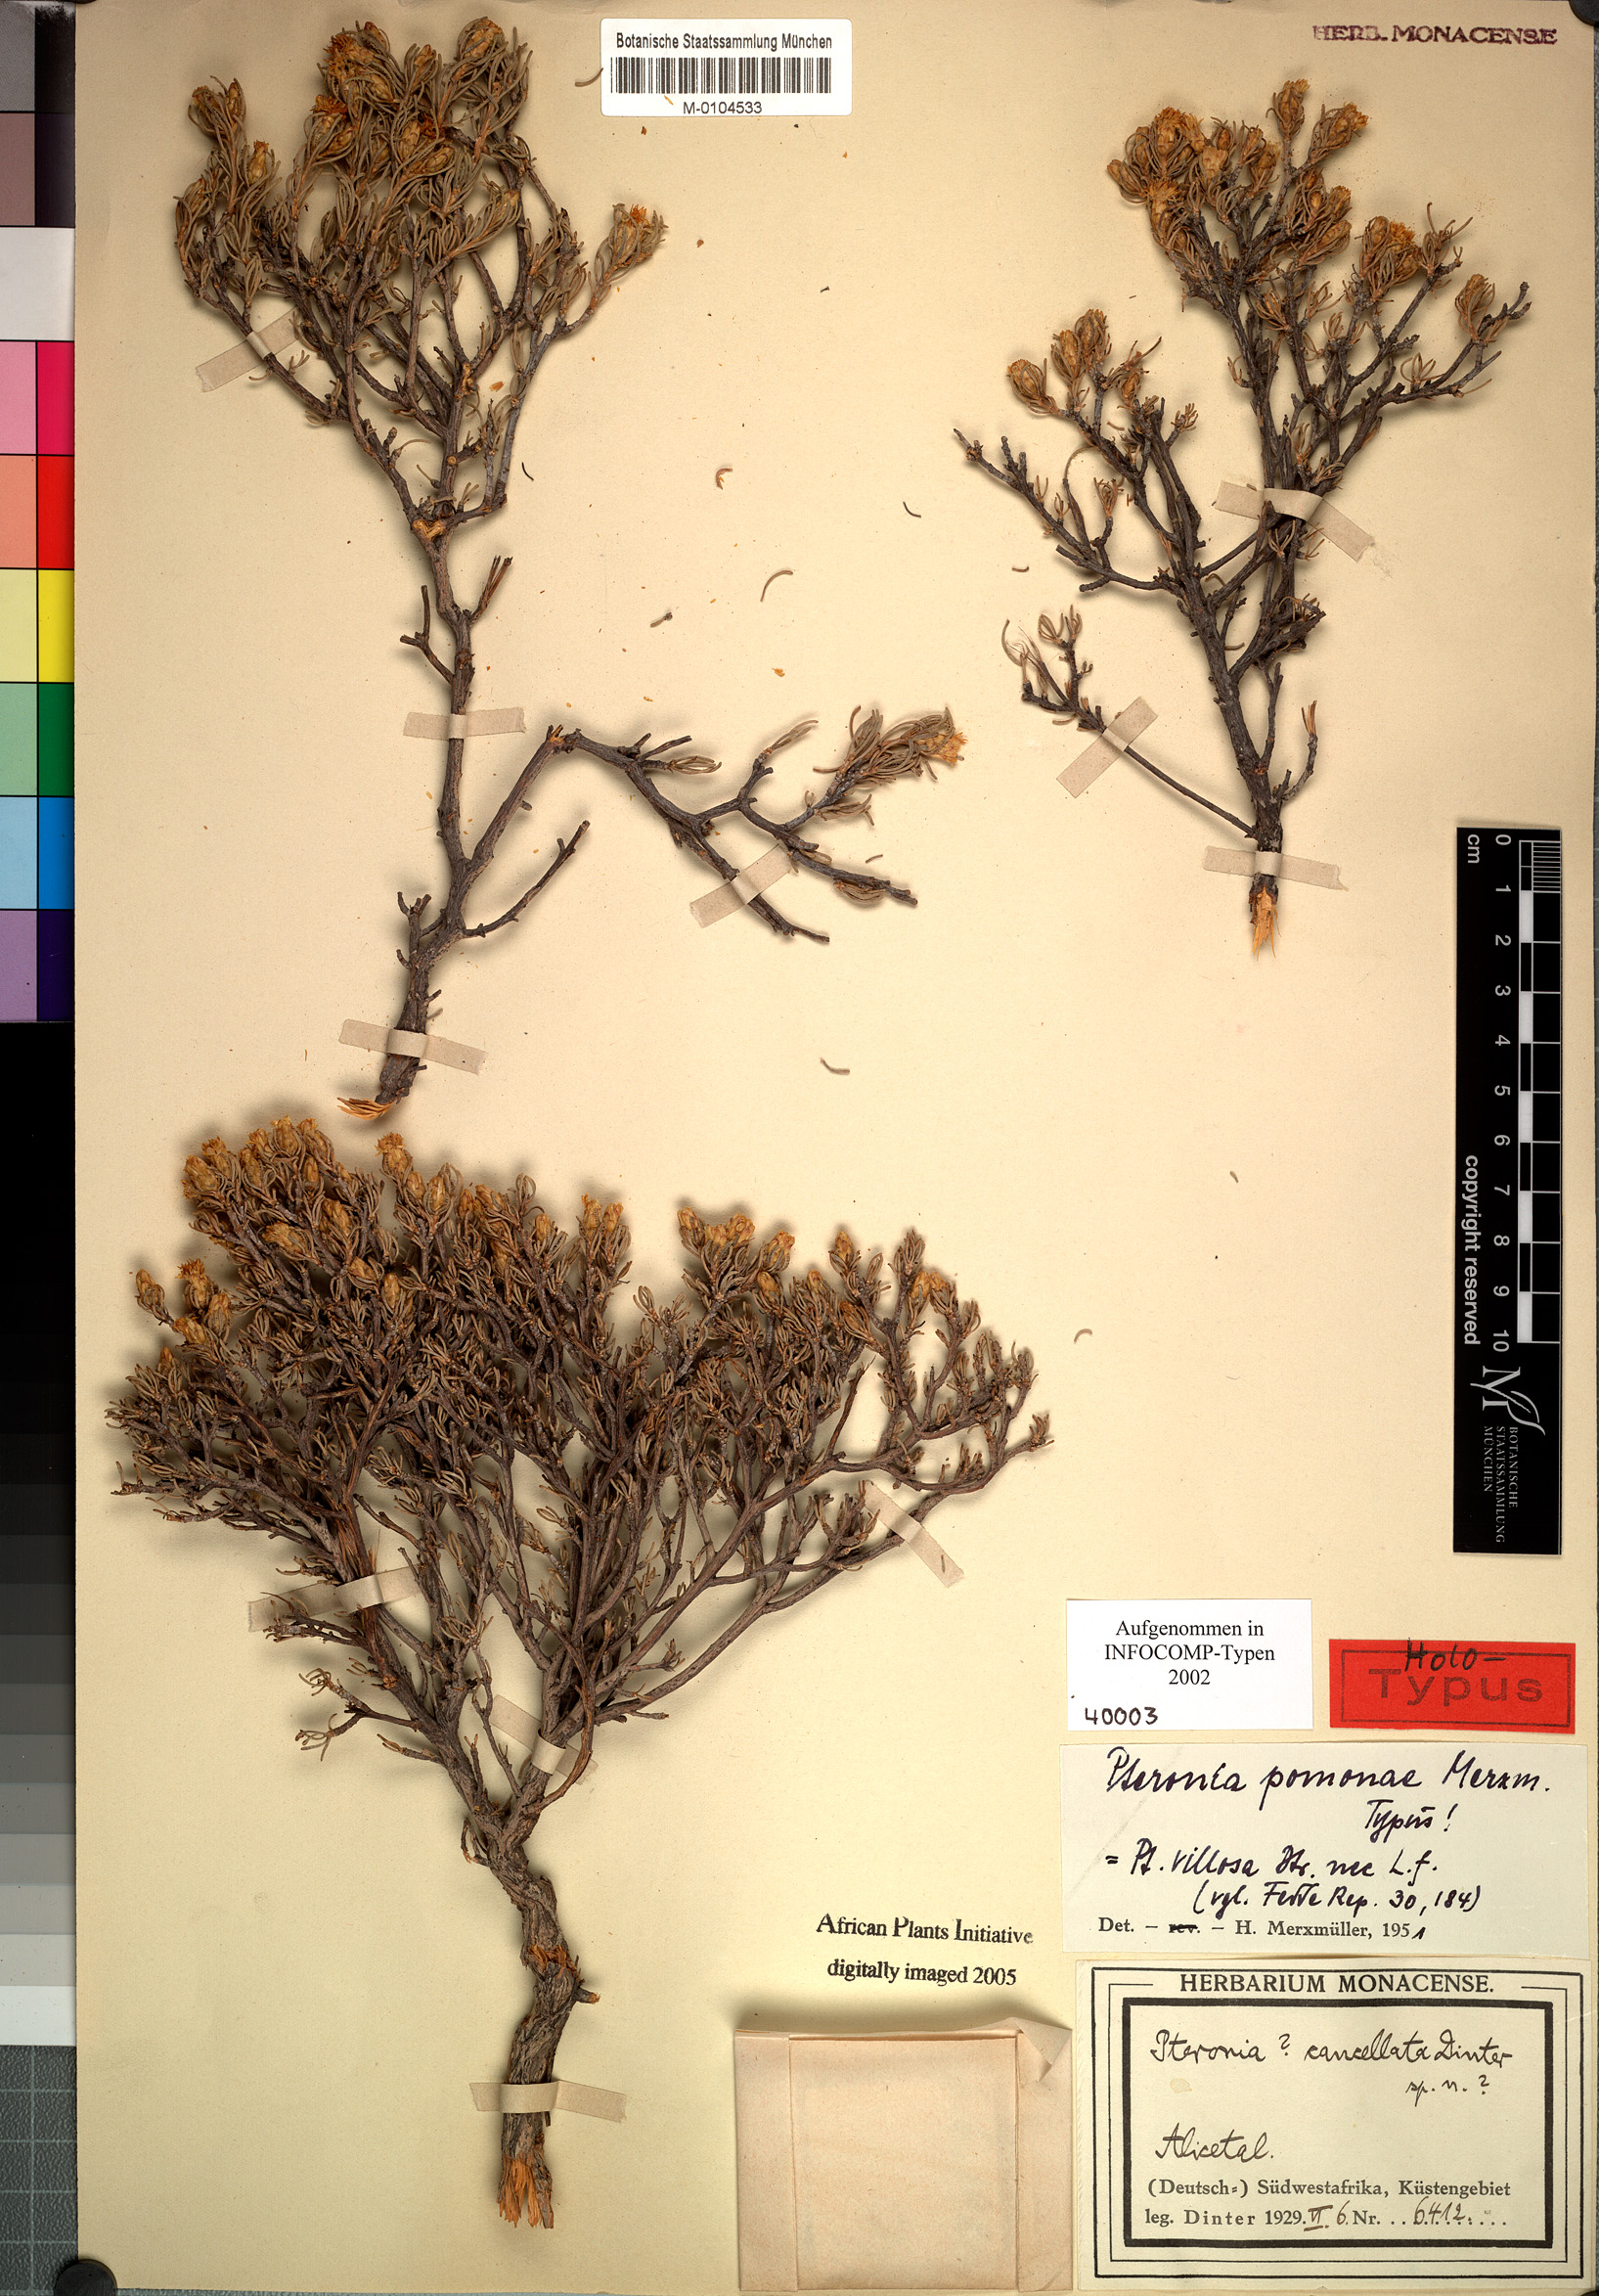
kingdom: Plantae
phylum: Tracheophyta
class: Magnoliopsida
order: Asterales
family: Asteraceae
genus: Pteronia
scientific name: Pteronia pomonae
